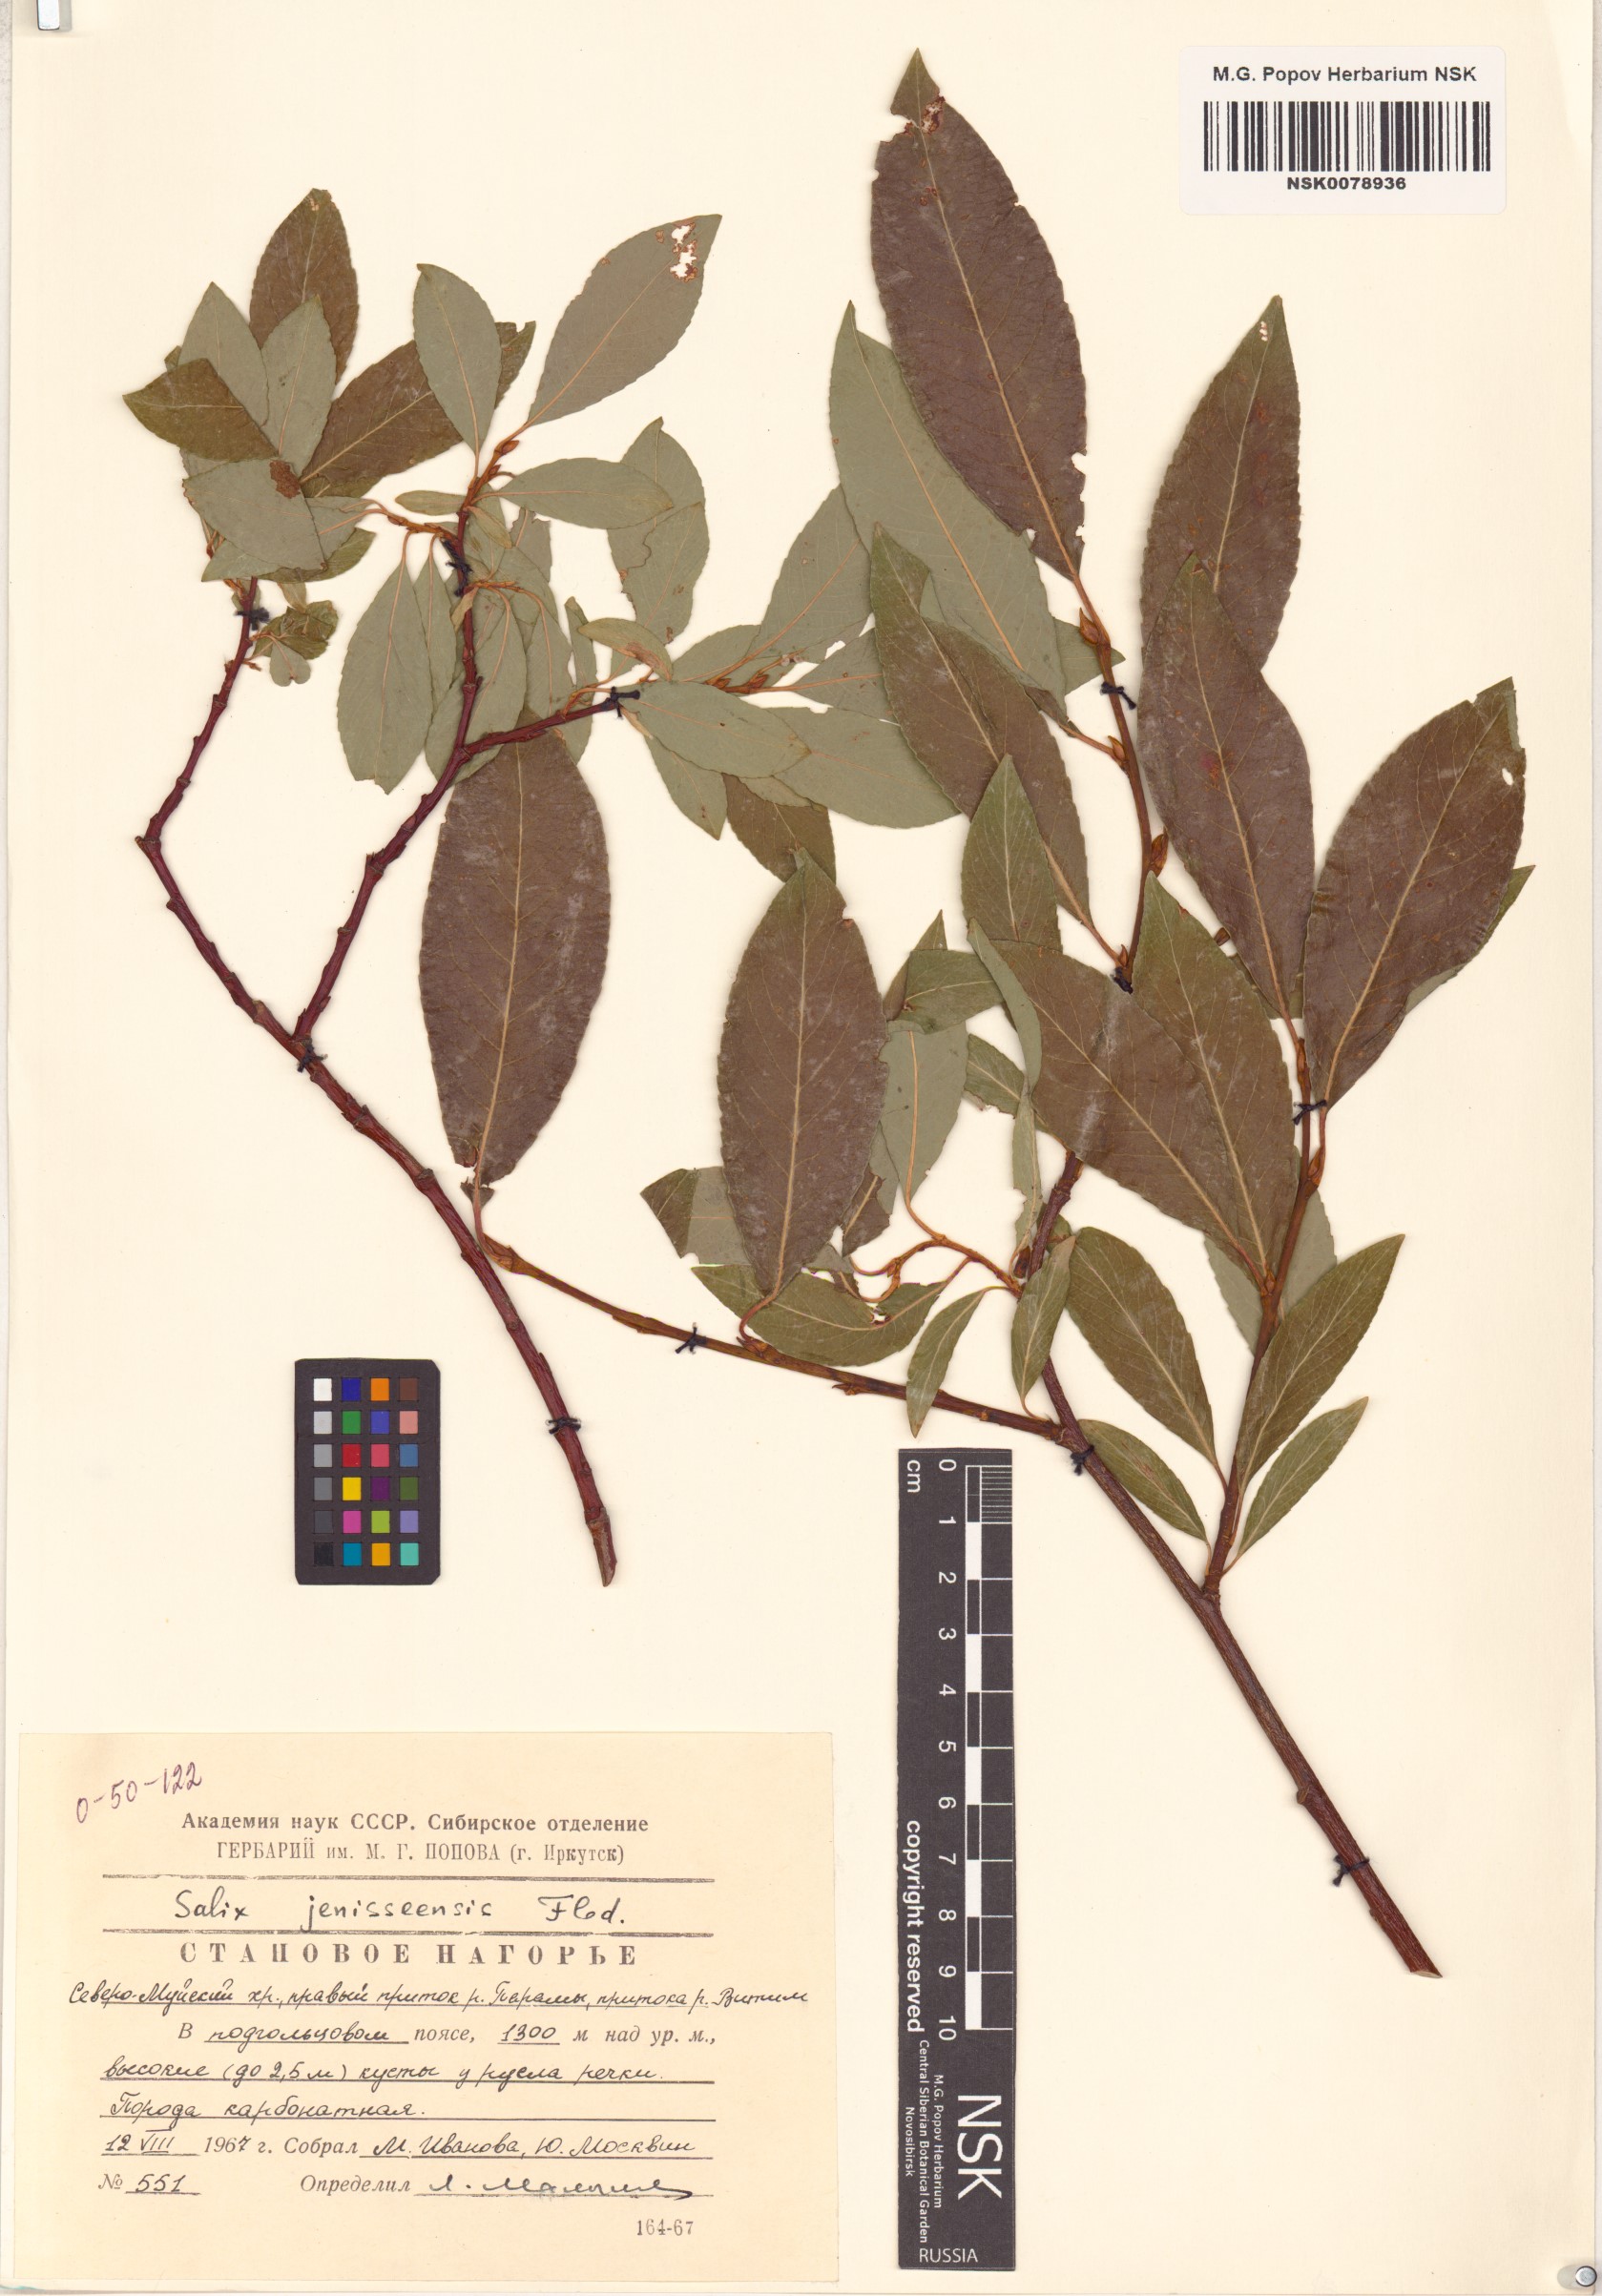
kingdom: Plantae
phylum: Tracheophyta
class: Magnoliopsida
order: Malpighiales
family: Salicaceae
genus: Salix
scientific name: Salix jenisseensis
